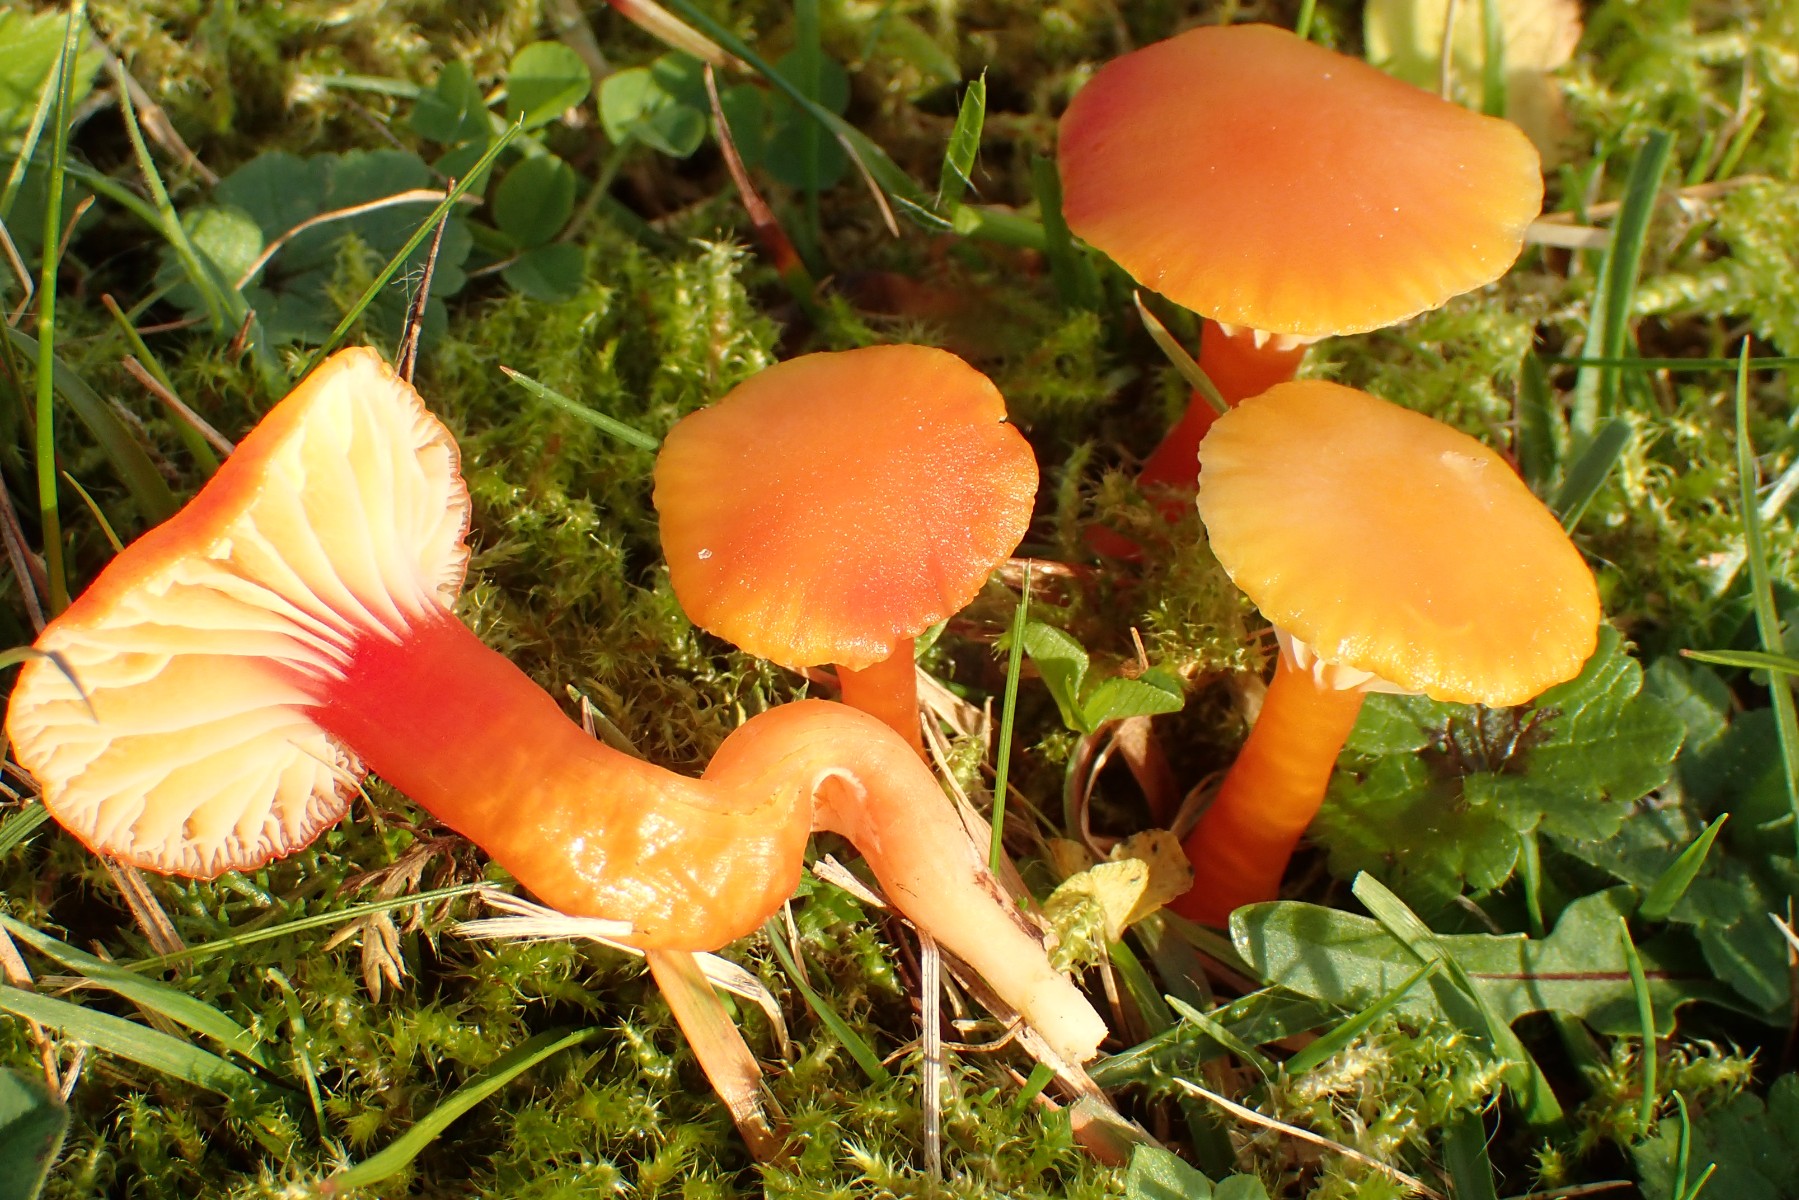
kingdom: Fungi
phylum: Basidiomycota
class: Agaricomycetes
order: Agaricales
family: Hygrophoraceae
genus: Hygrocybe
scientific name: Hygrocybe insipida
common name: liden vokshat
